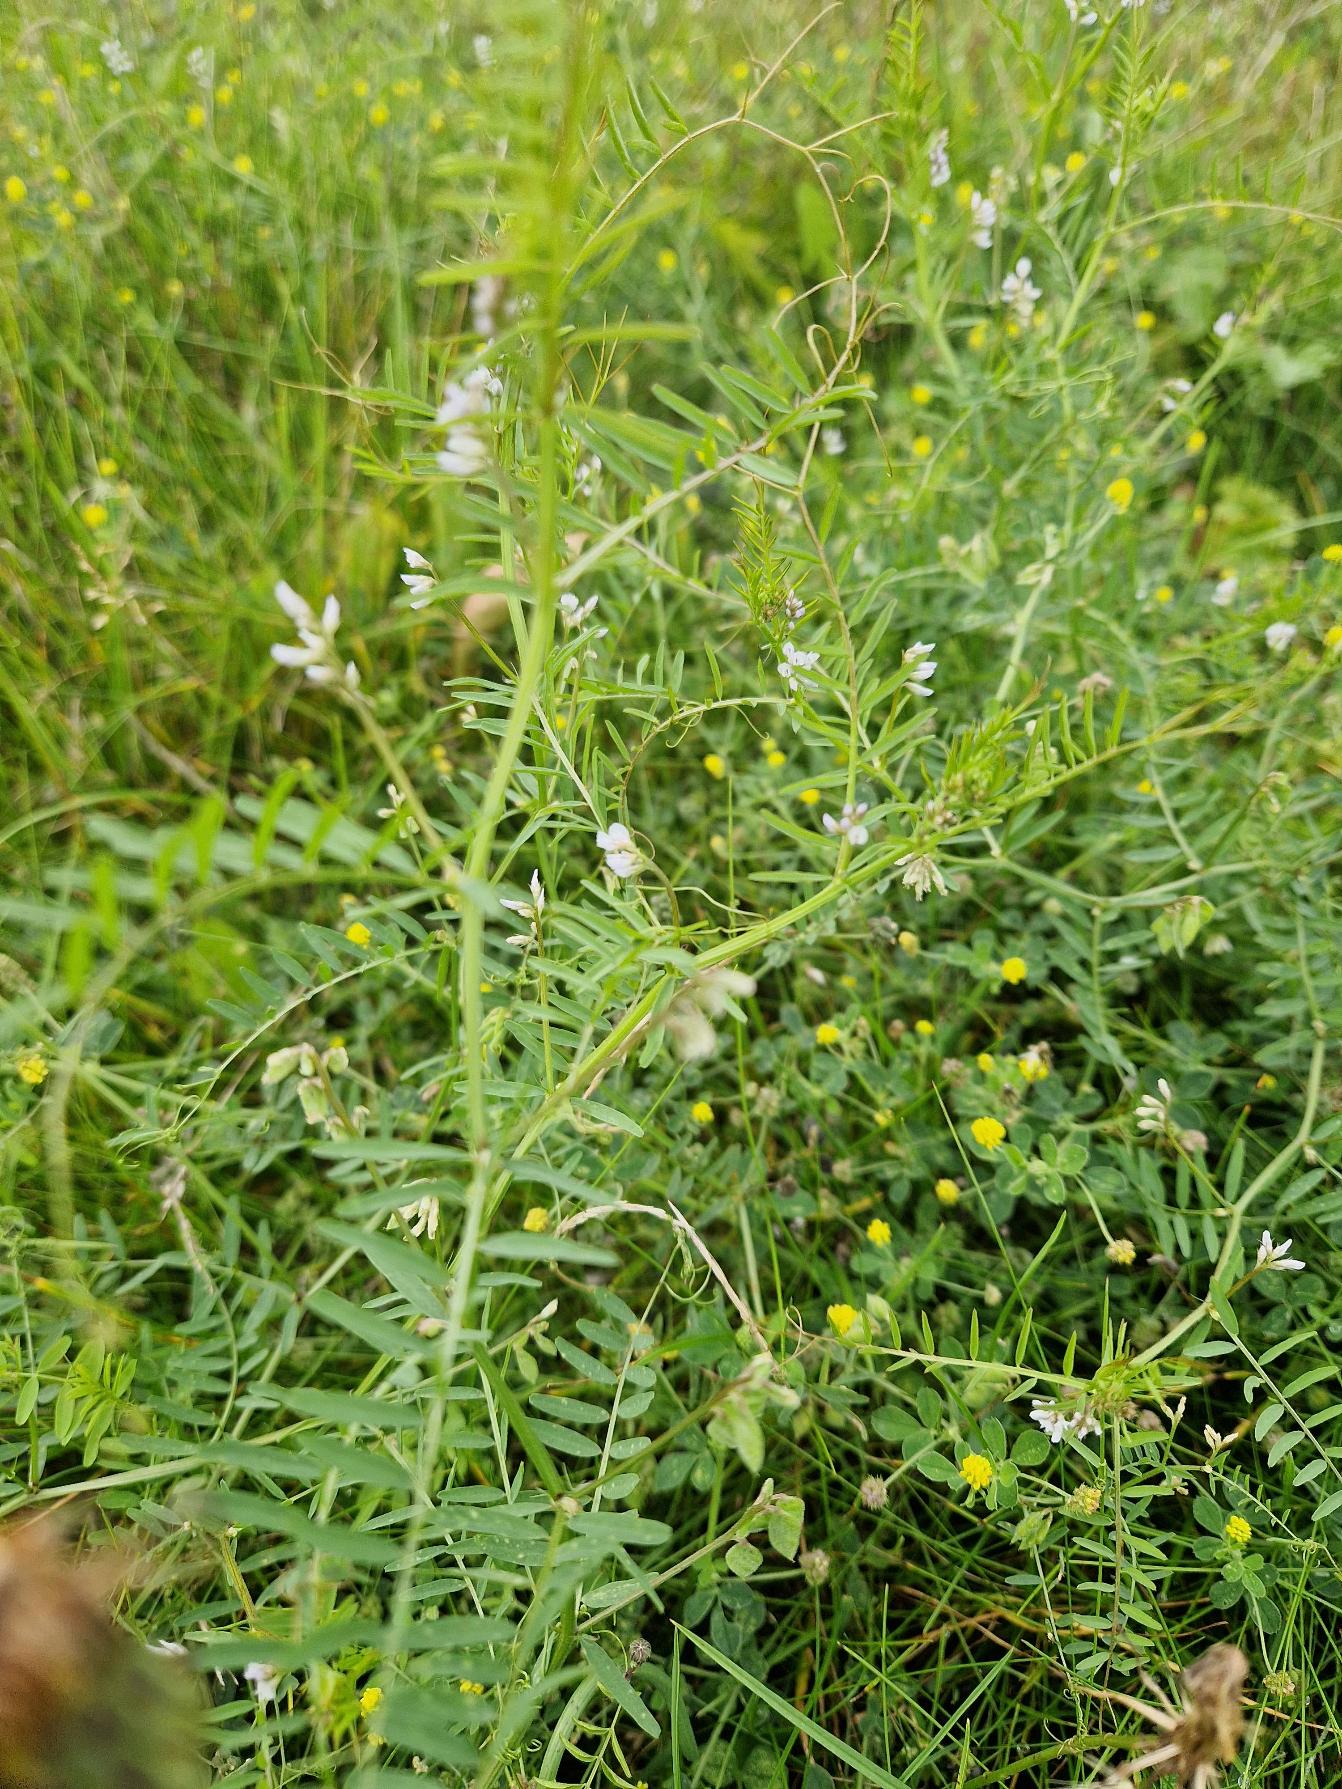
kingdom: Plantae
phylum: Tracheophyta
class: Magnoliopsida
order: Fabales
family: Fabaceae
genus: Vicia
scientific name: Vicia hirsuta
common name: Tofrøet vikke
